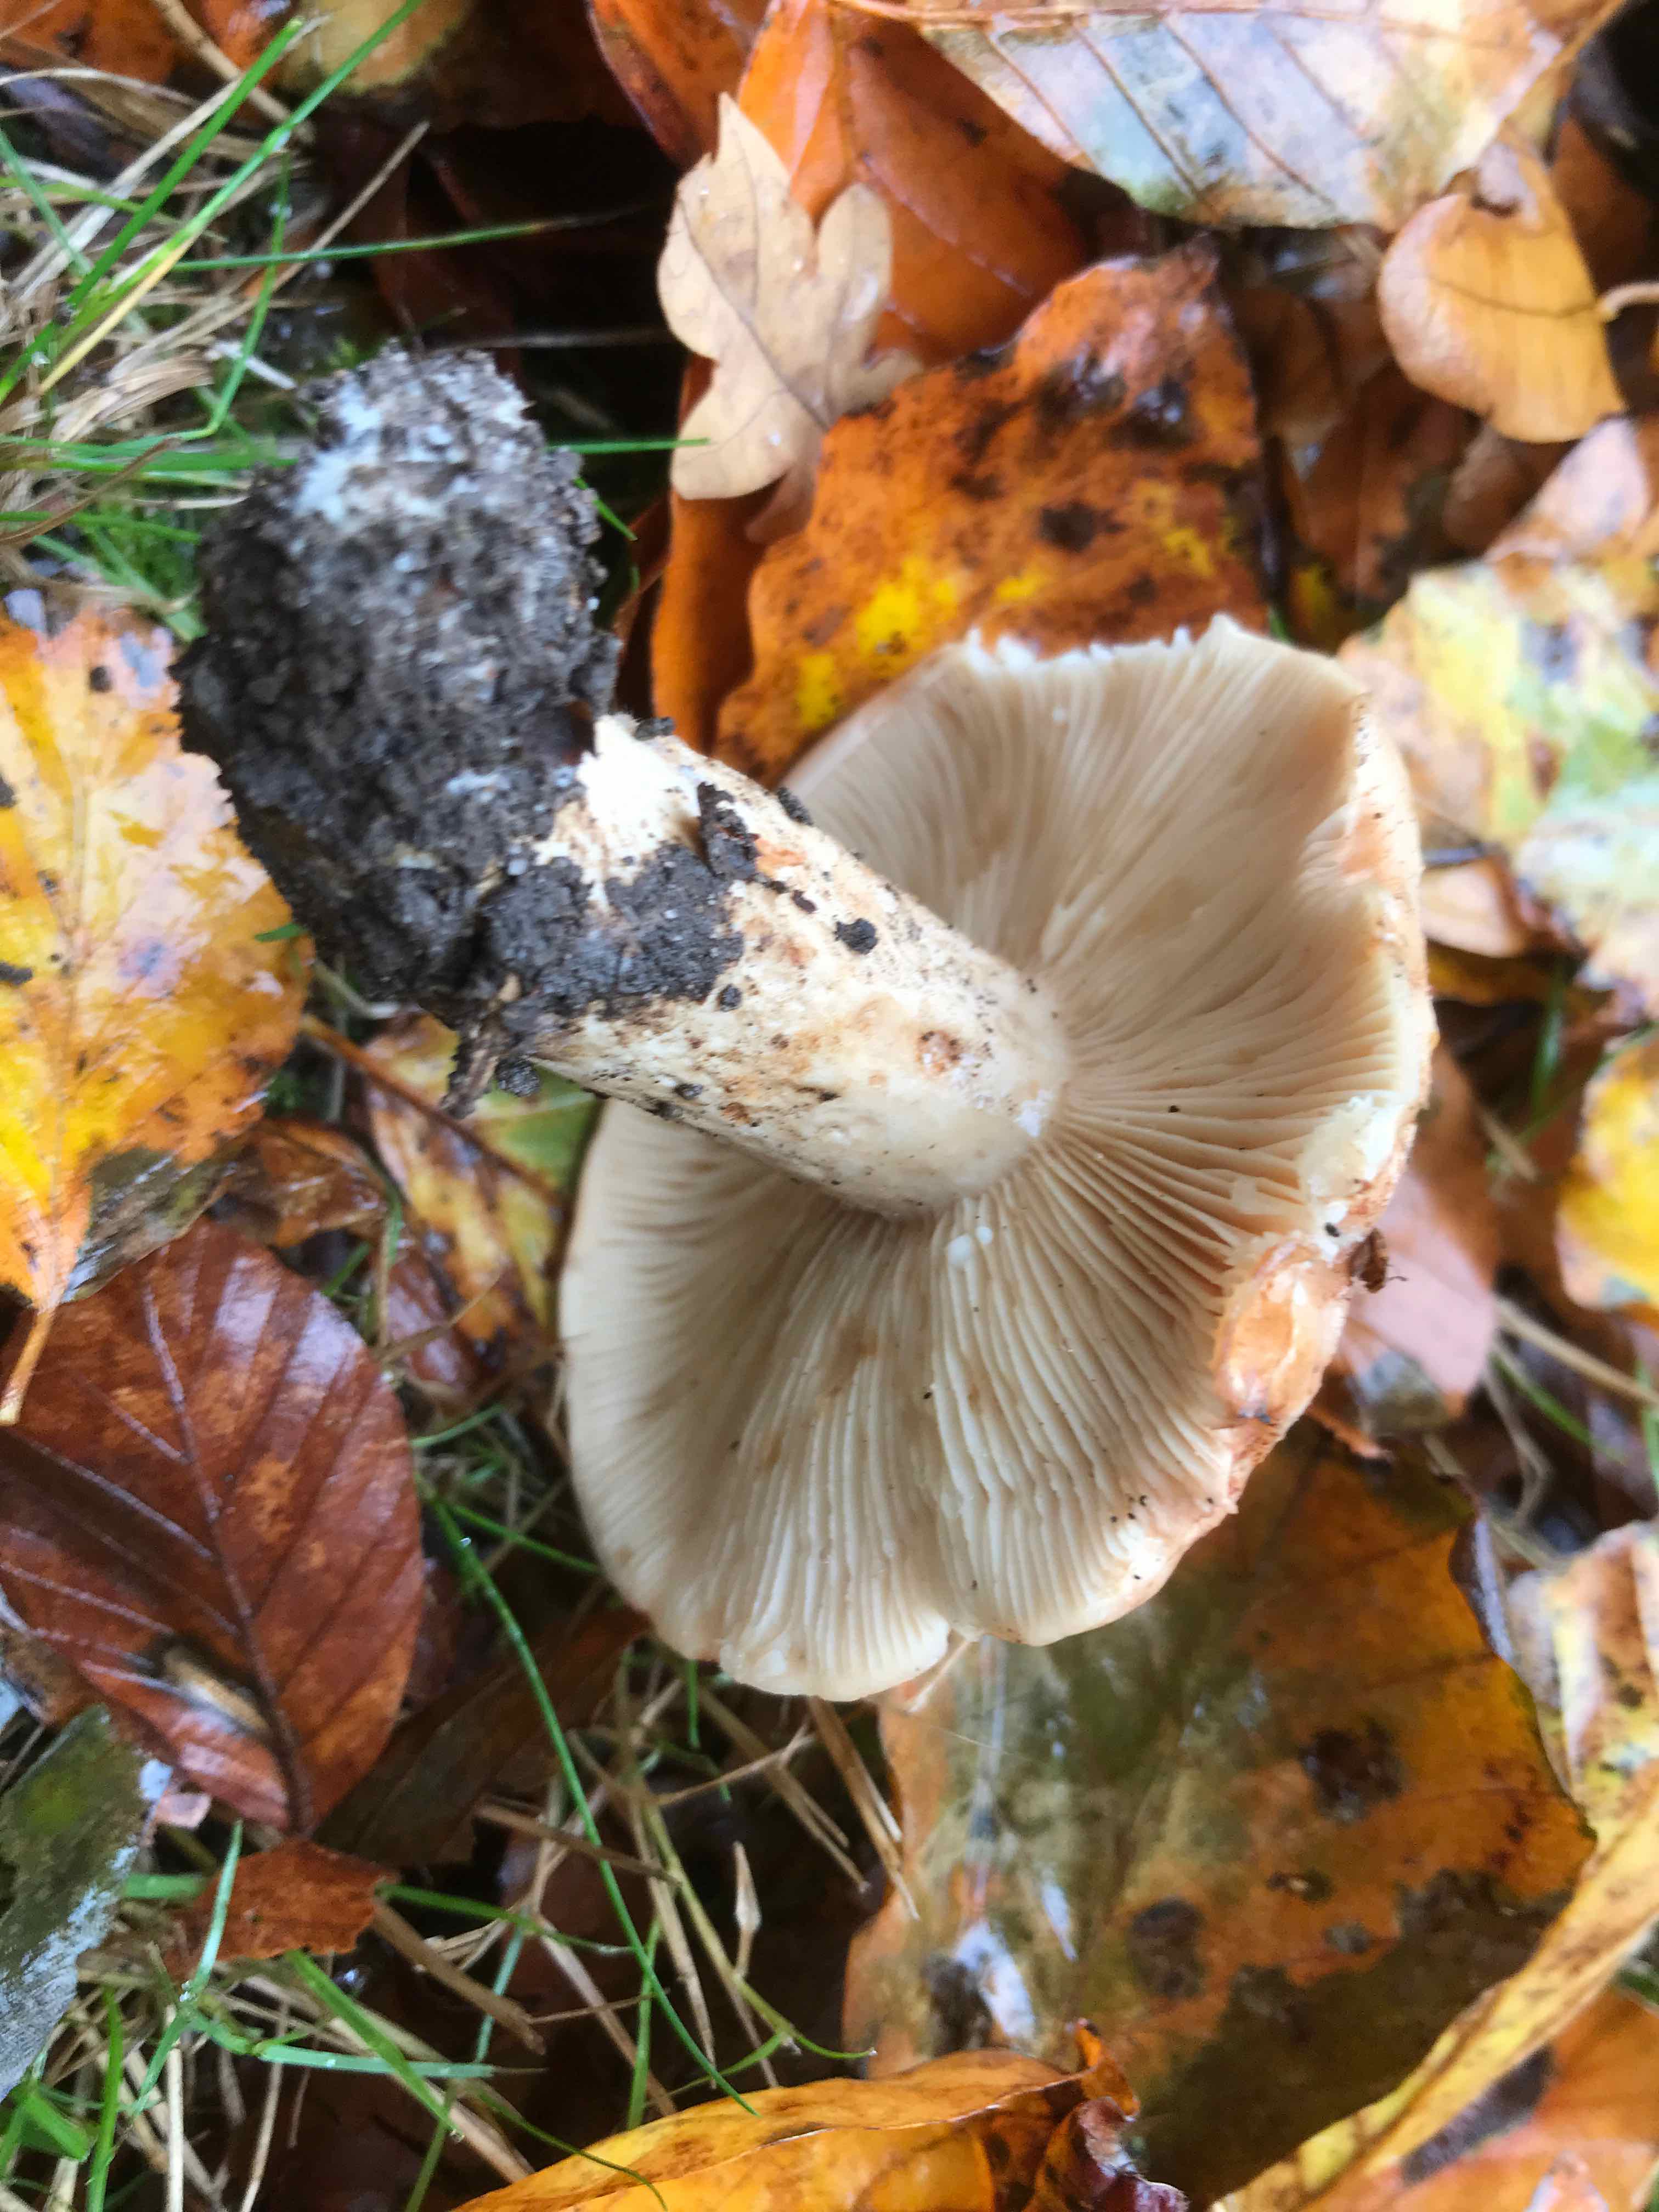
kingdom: Fungi
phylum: Basidiomycota
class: Agaricomycetes
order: Russulales
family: Russulaceae
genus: Lactarius
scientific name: Lactarius pallidus
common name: bleg mælkehat
